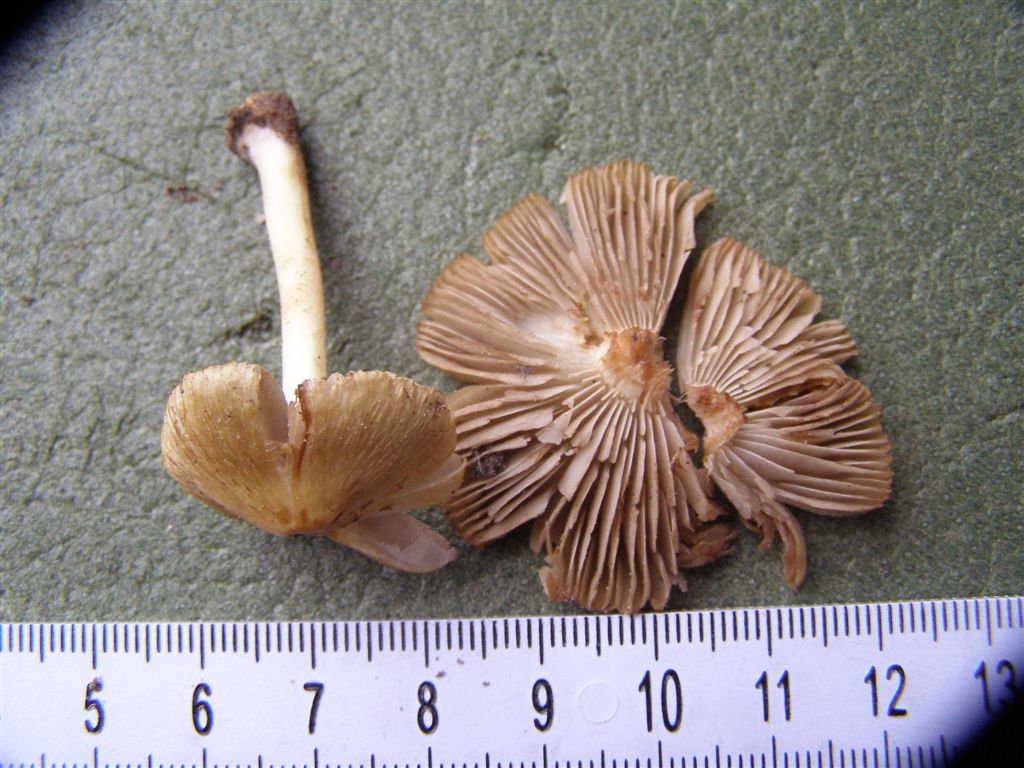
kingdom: Fungi
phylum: Basidiomycota
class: Agaricomycetes
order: Agaricales
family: Inocybaceae
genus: Inocybe
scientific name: Inocybe
